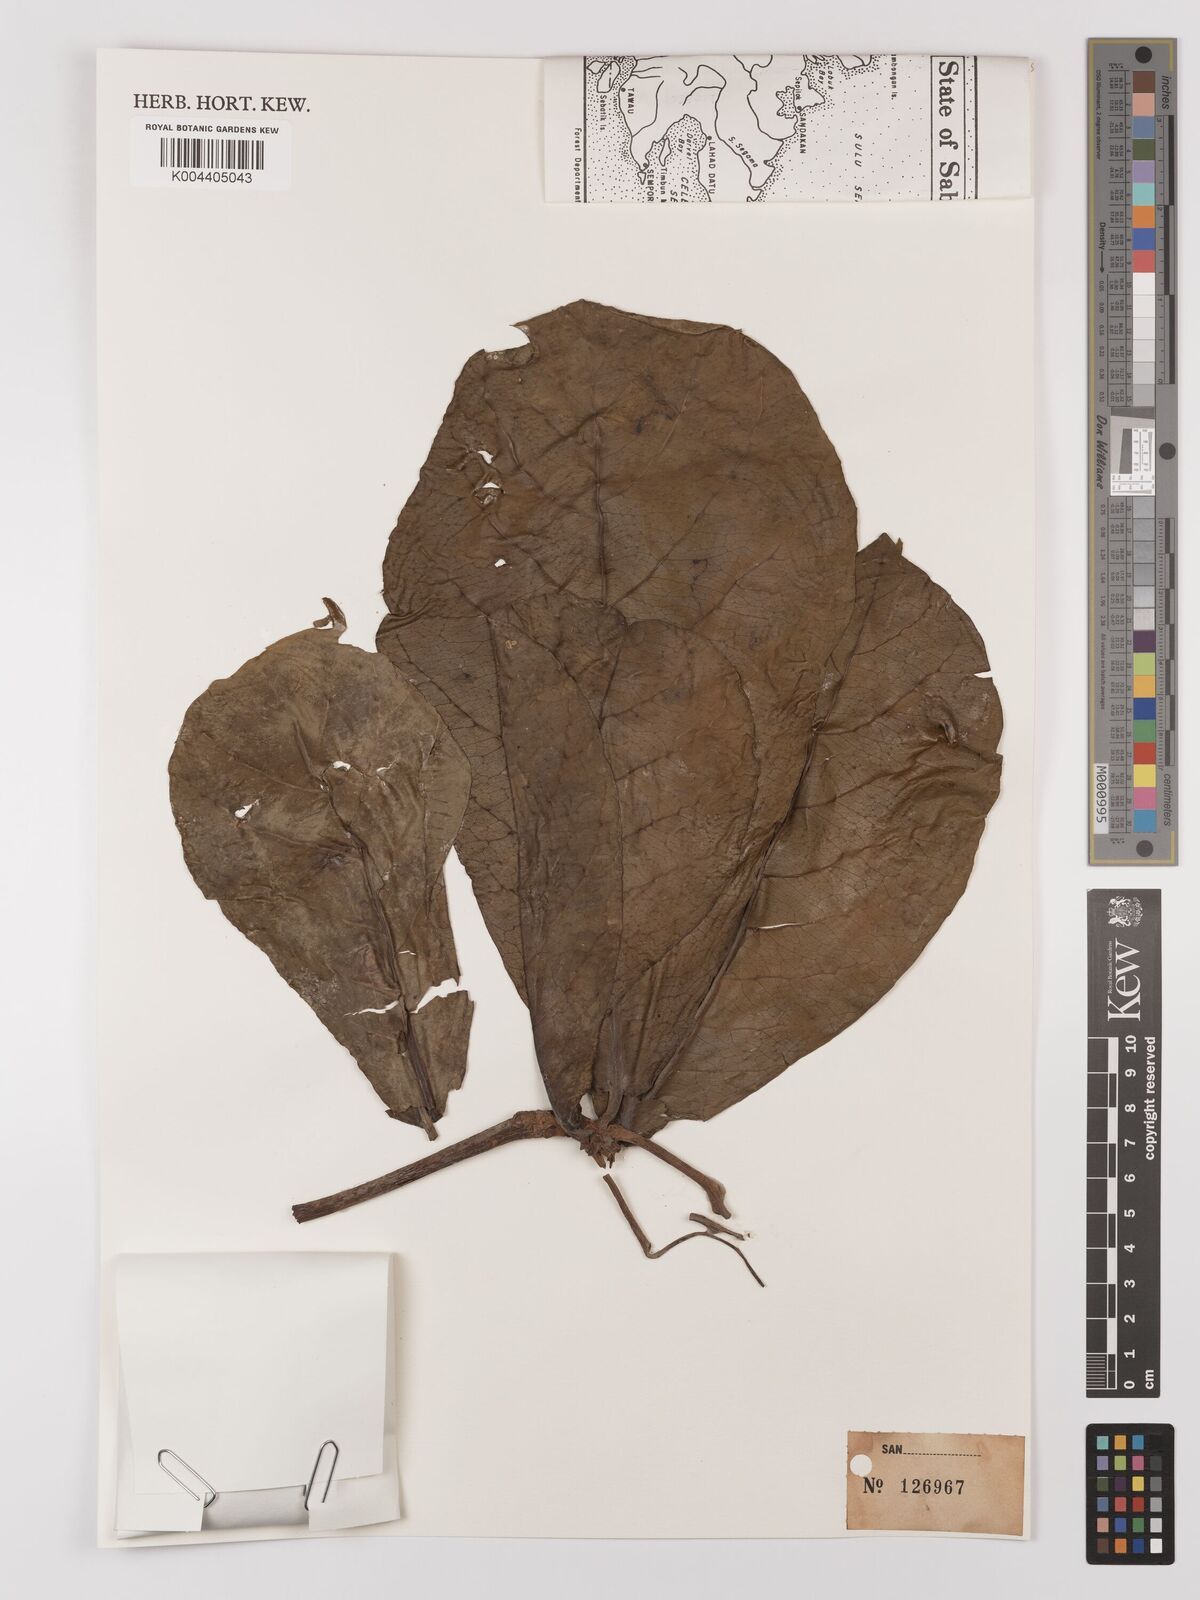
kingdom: Plantae
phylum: Tracheophyta
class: Magnoliopsida
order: Myrtales
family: Combretaceae
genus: Terminalia
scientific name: Terminalia catappa
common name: Tropical almond
